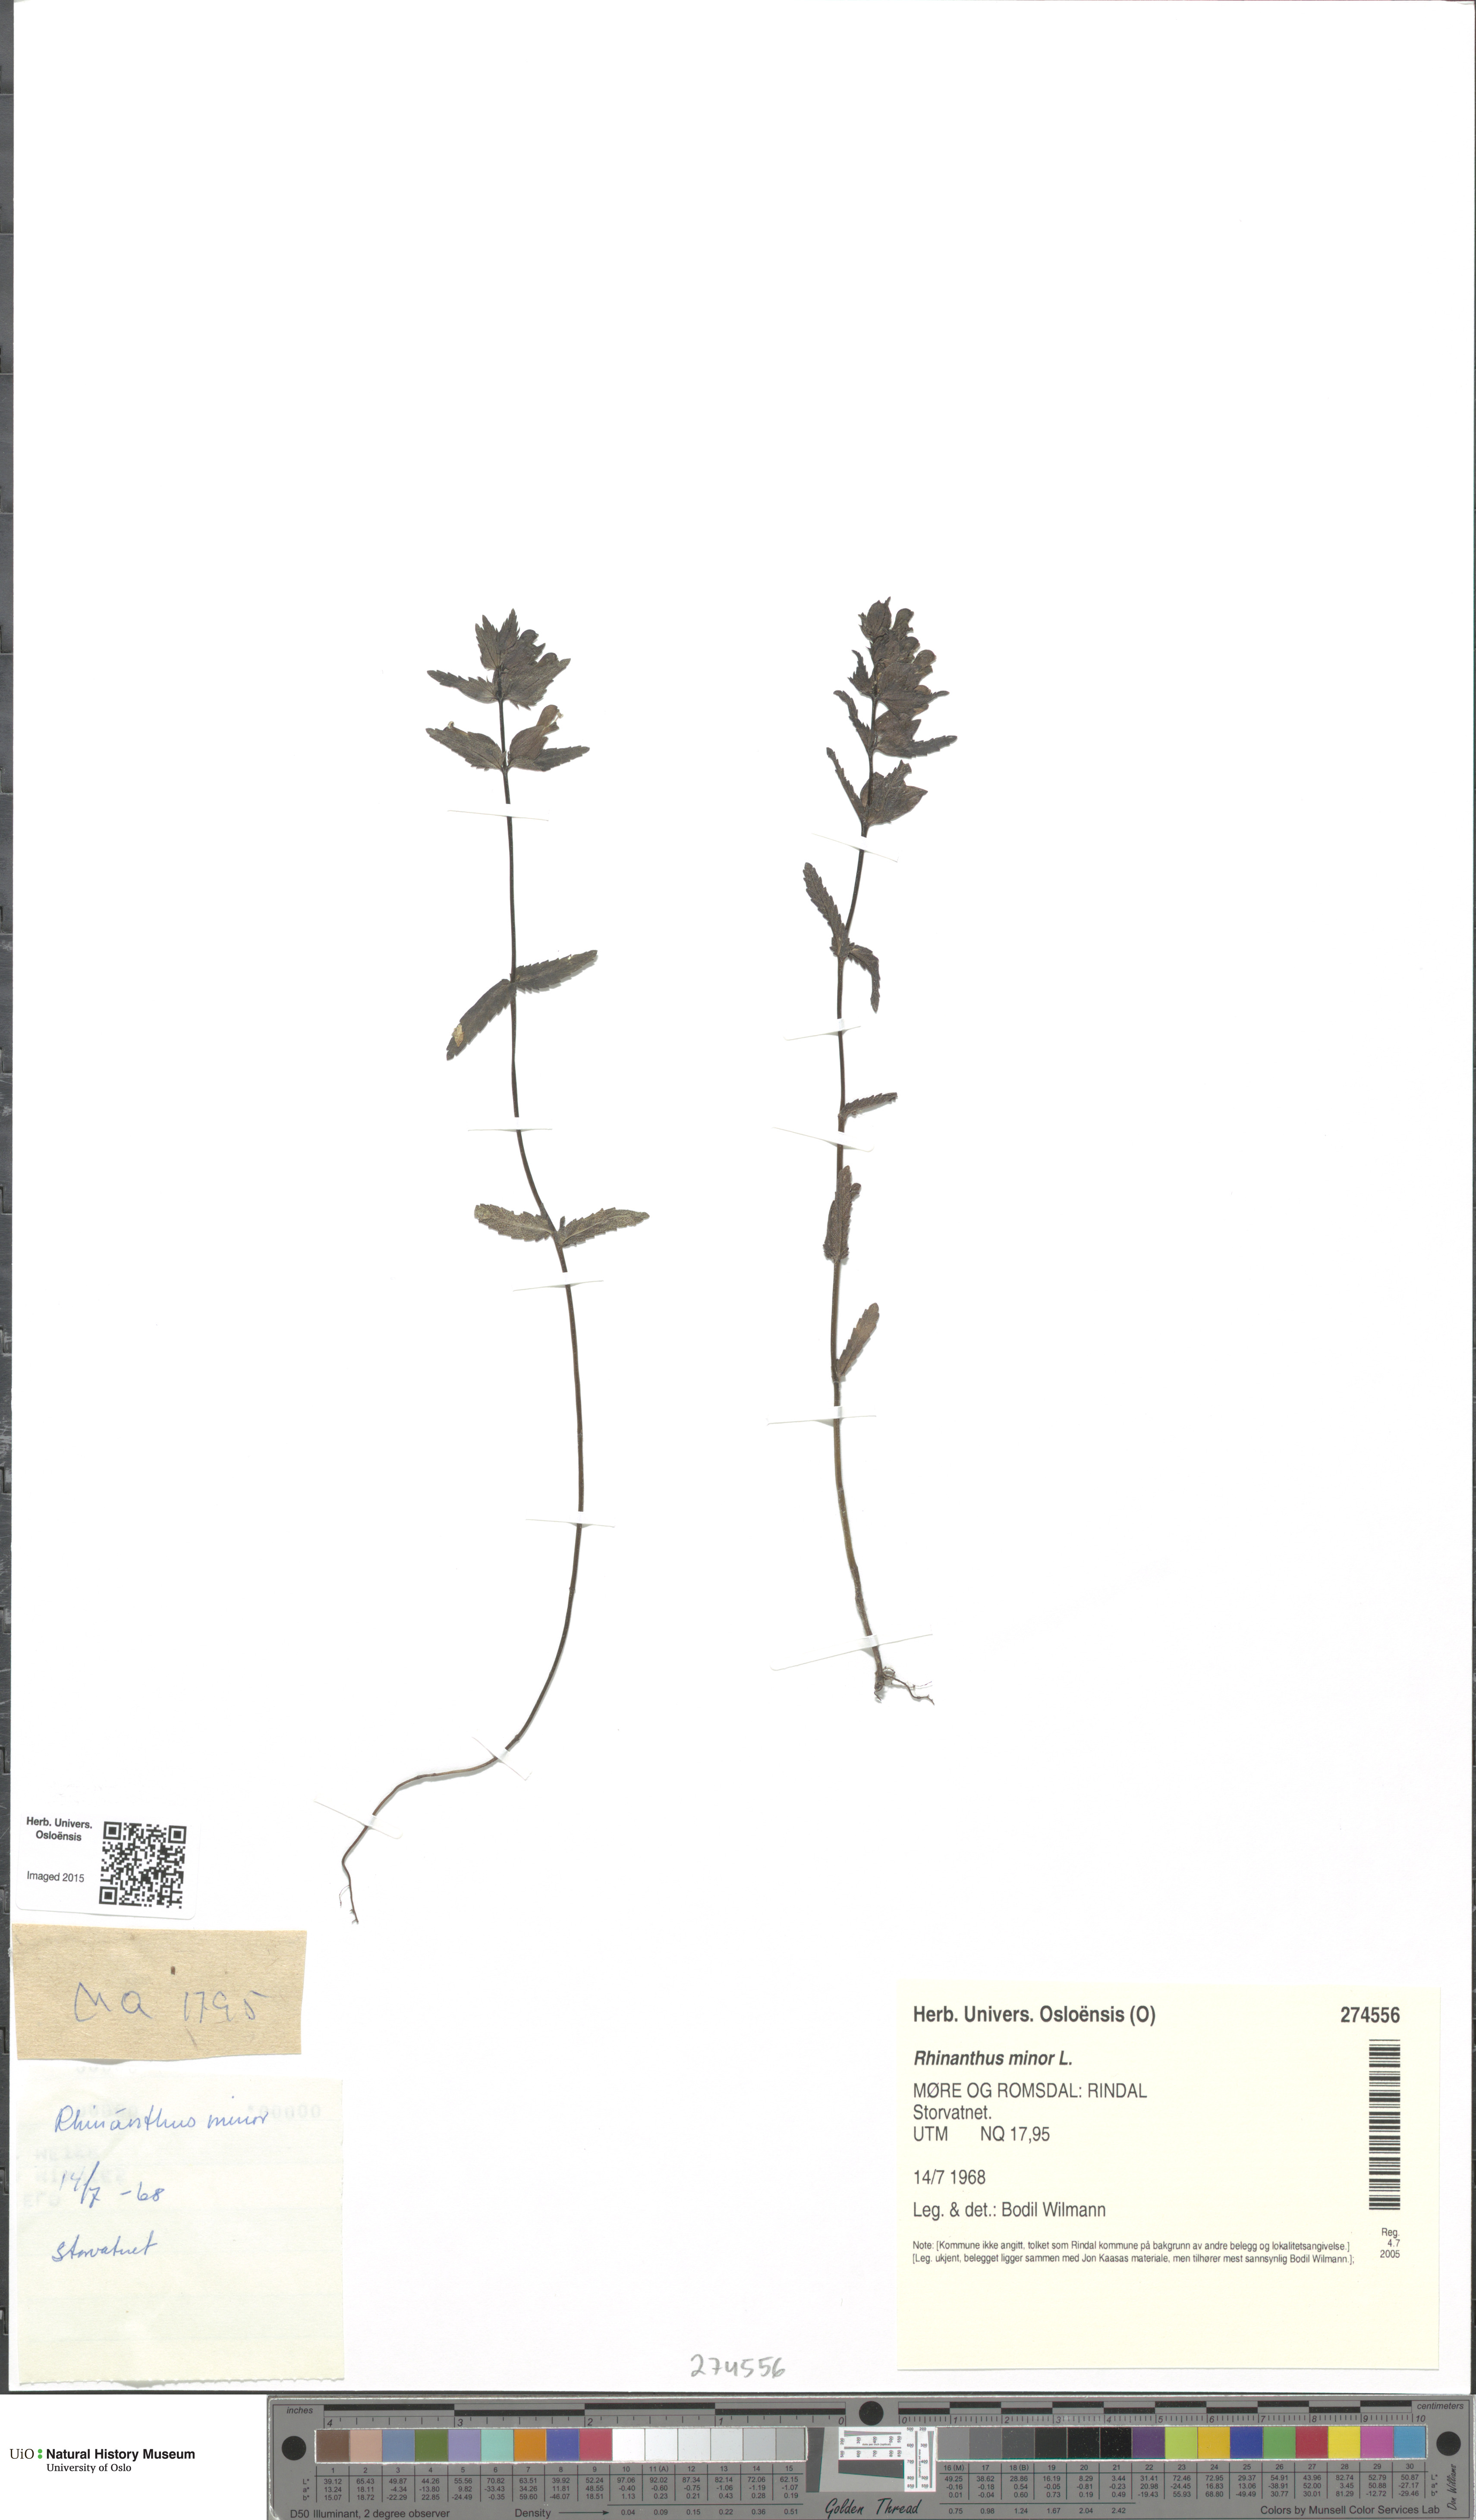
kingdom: Plantae
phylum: Tracheophyta
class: Magnoliopsida
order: Lamiales
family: Orobanchaceae
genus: Rhinanthus
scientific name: Rhinanthus minor
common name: Yellow-rattle
